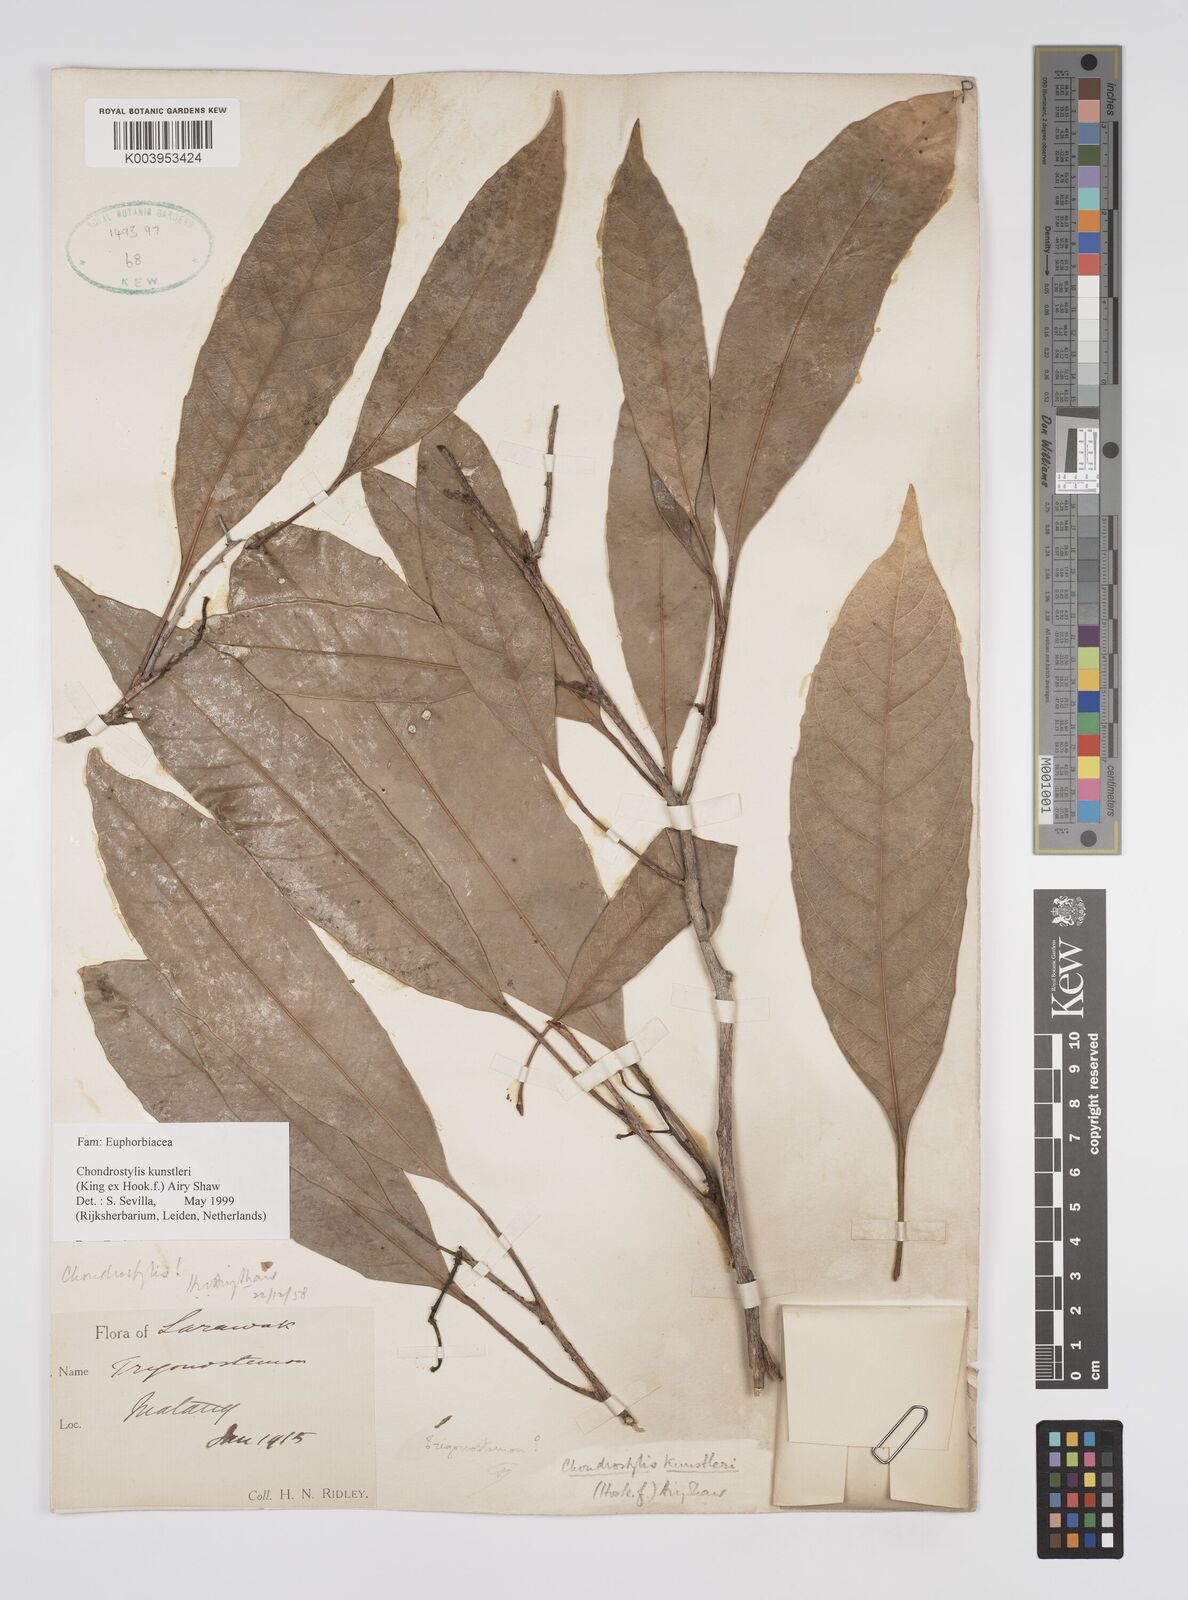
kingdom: Plantae
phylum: Tracheophyta
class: Magnoliopsida
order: Malpighiales
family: Euphorbiaceae
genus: Chondrostylis
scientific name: Chondrostylis kunstleri
